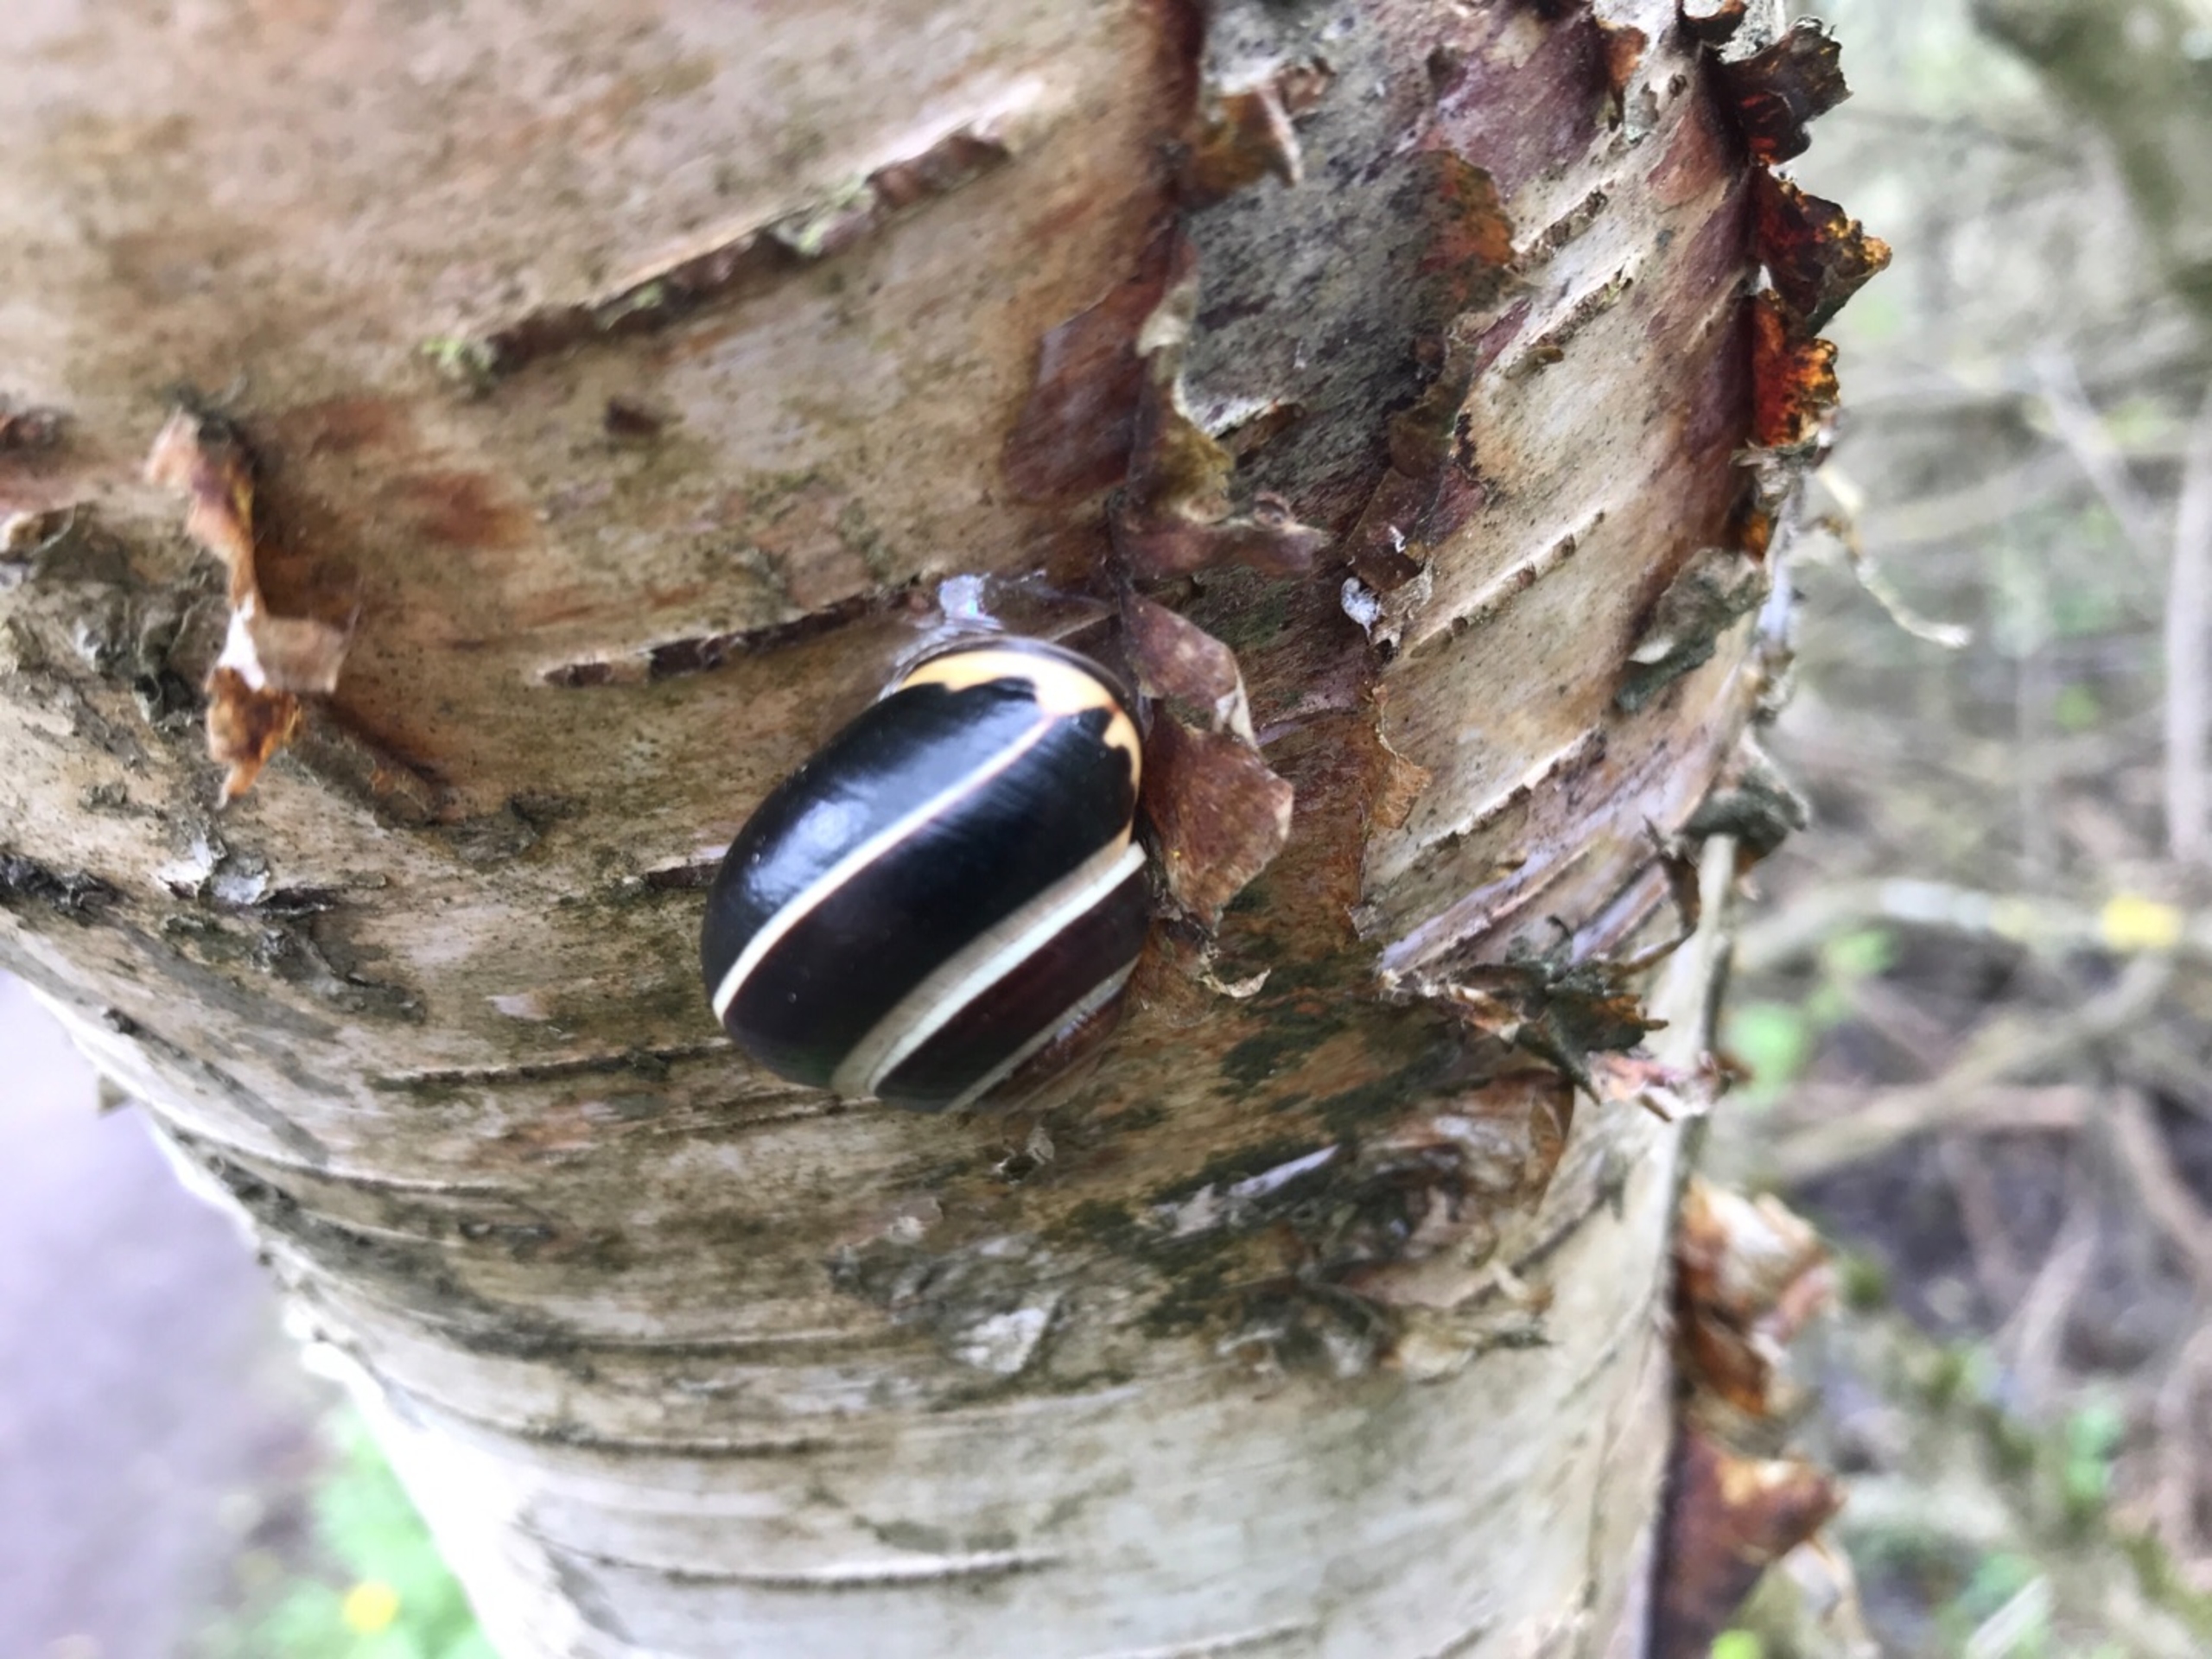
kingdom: Animalia
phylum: Mollusca
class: Gastropoda
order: Stylommatophora
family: Helicidae
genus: Cepaea
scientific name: Cepaea nemoralis
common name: Lundsnegl
